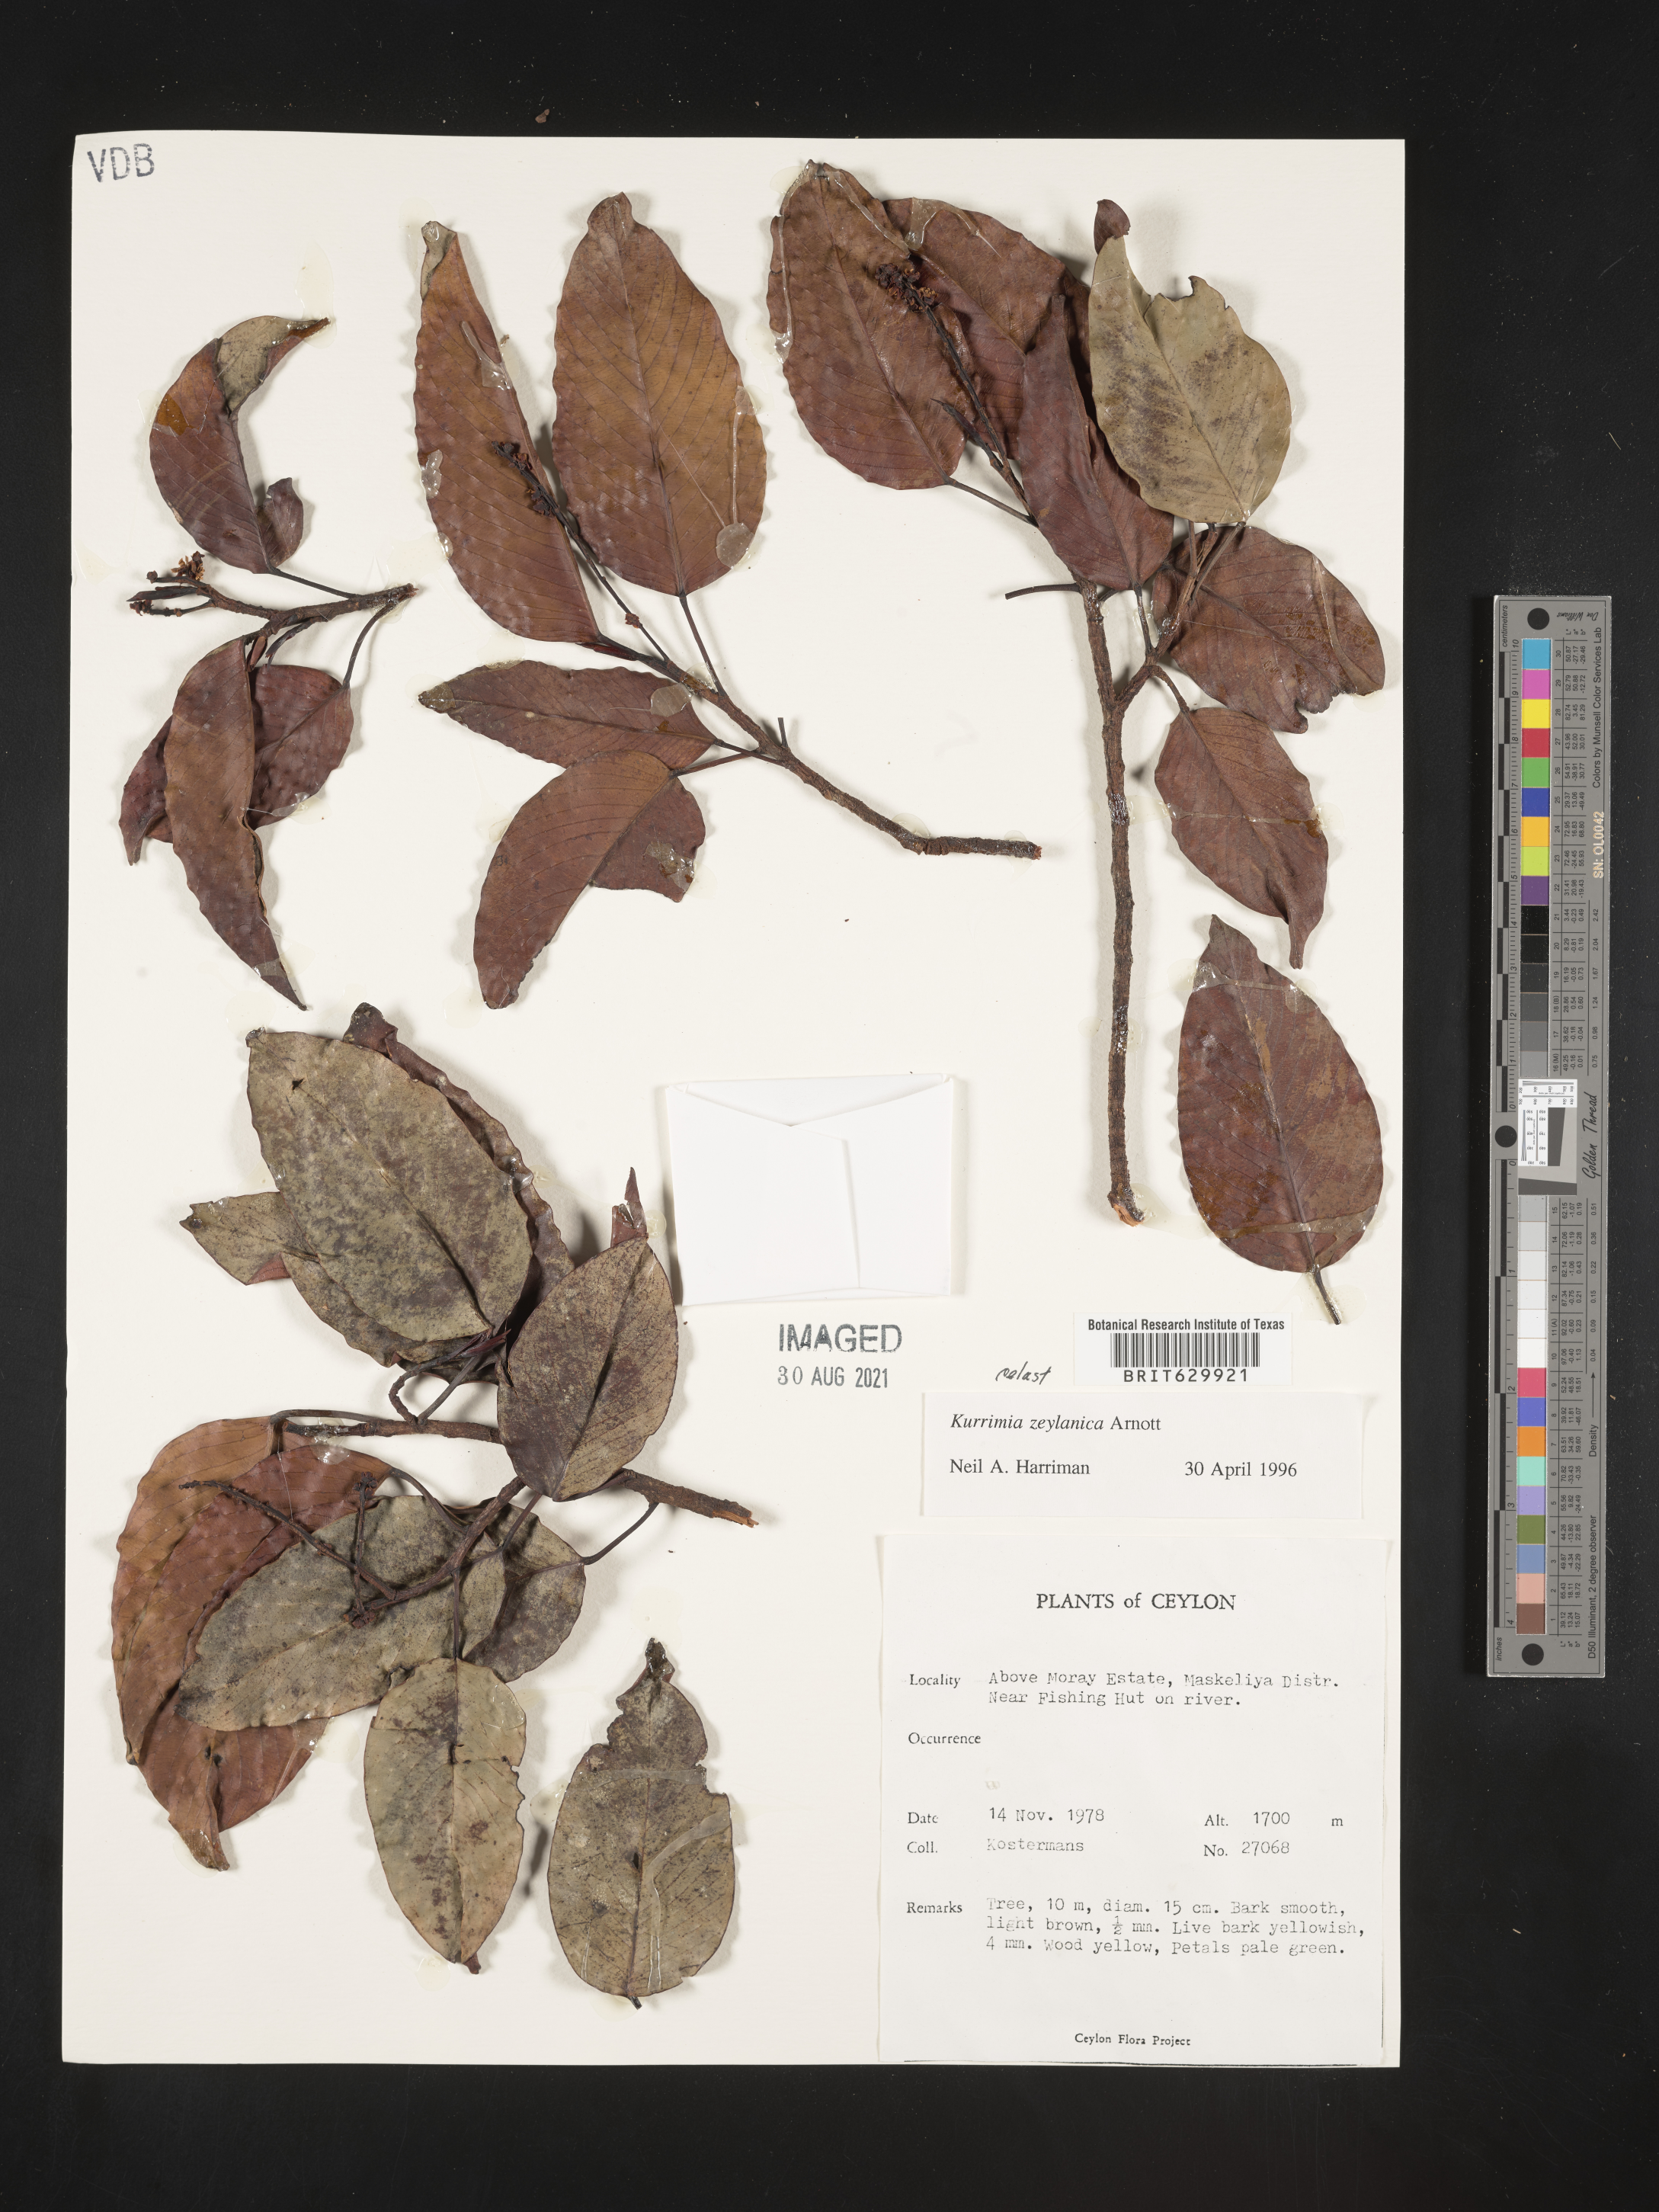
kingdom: Plantae
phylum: Tracheophyta
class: Magnoliopsida
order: Escalloniales
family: Escalloniaceae
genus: Kurrimia
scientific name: Kurrimia
